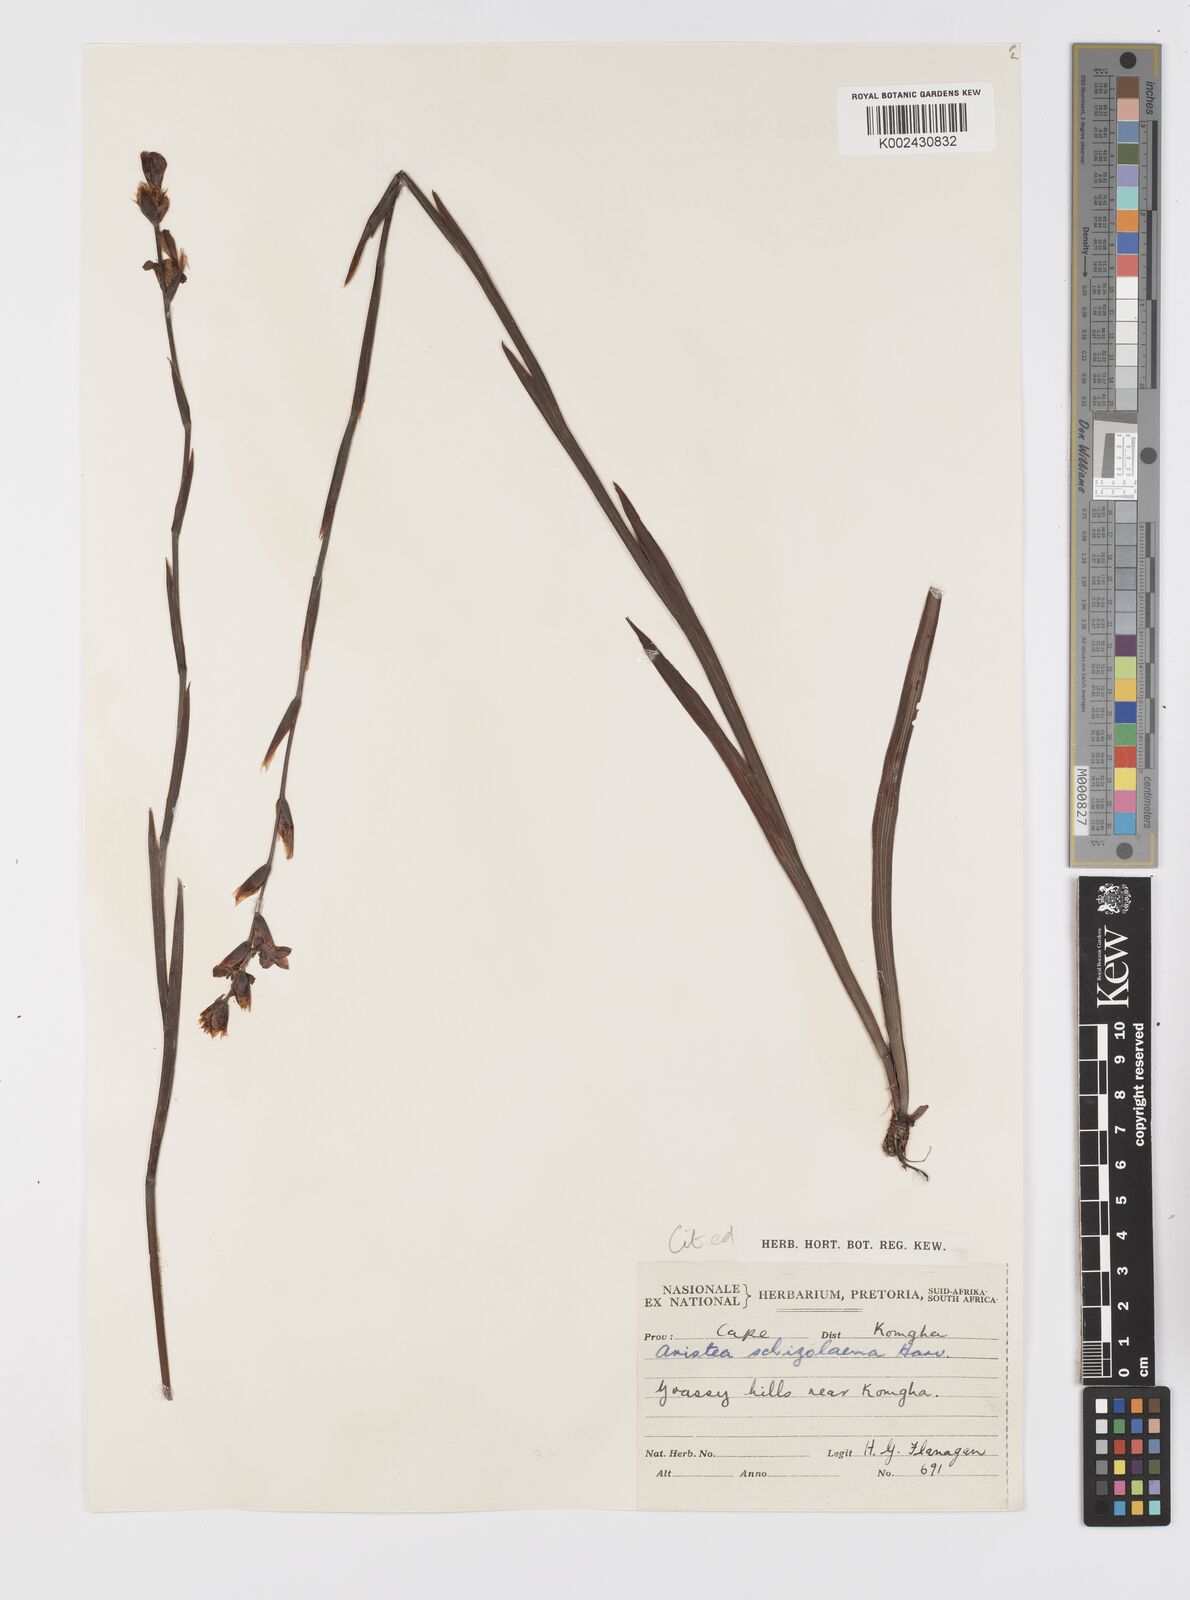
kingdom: Plantae
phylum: Tracheophyta
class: Liliopsida
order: Asparagales
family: Iridaceae
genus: Aristea
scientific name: Aristea schizolaena
